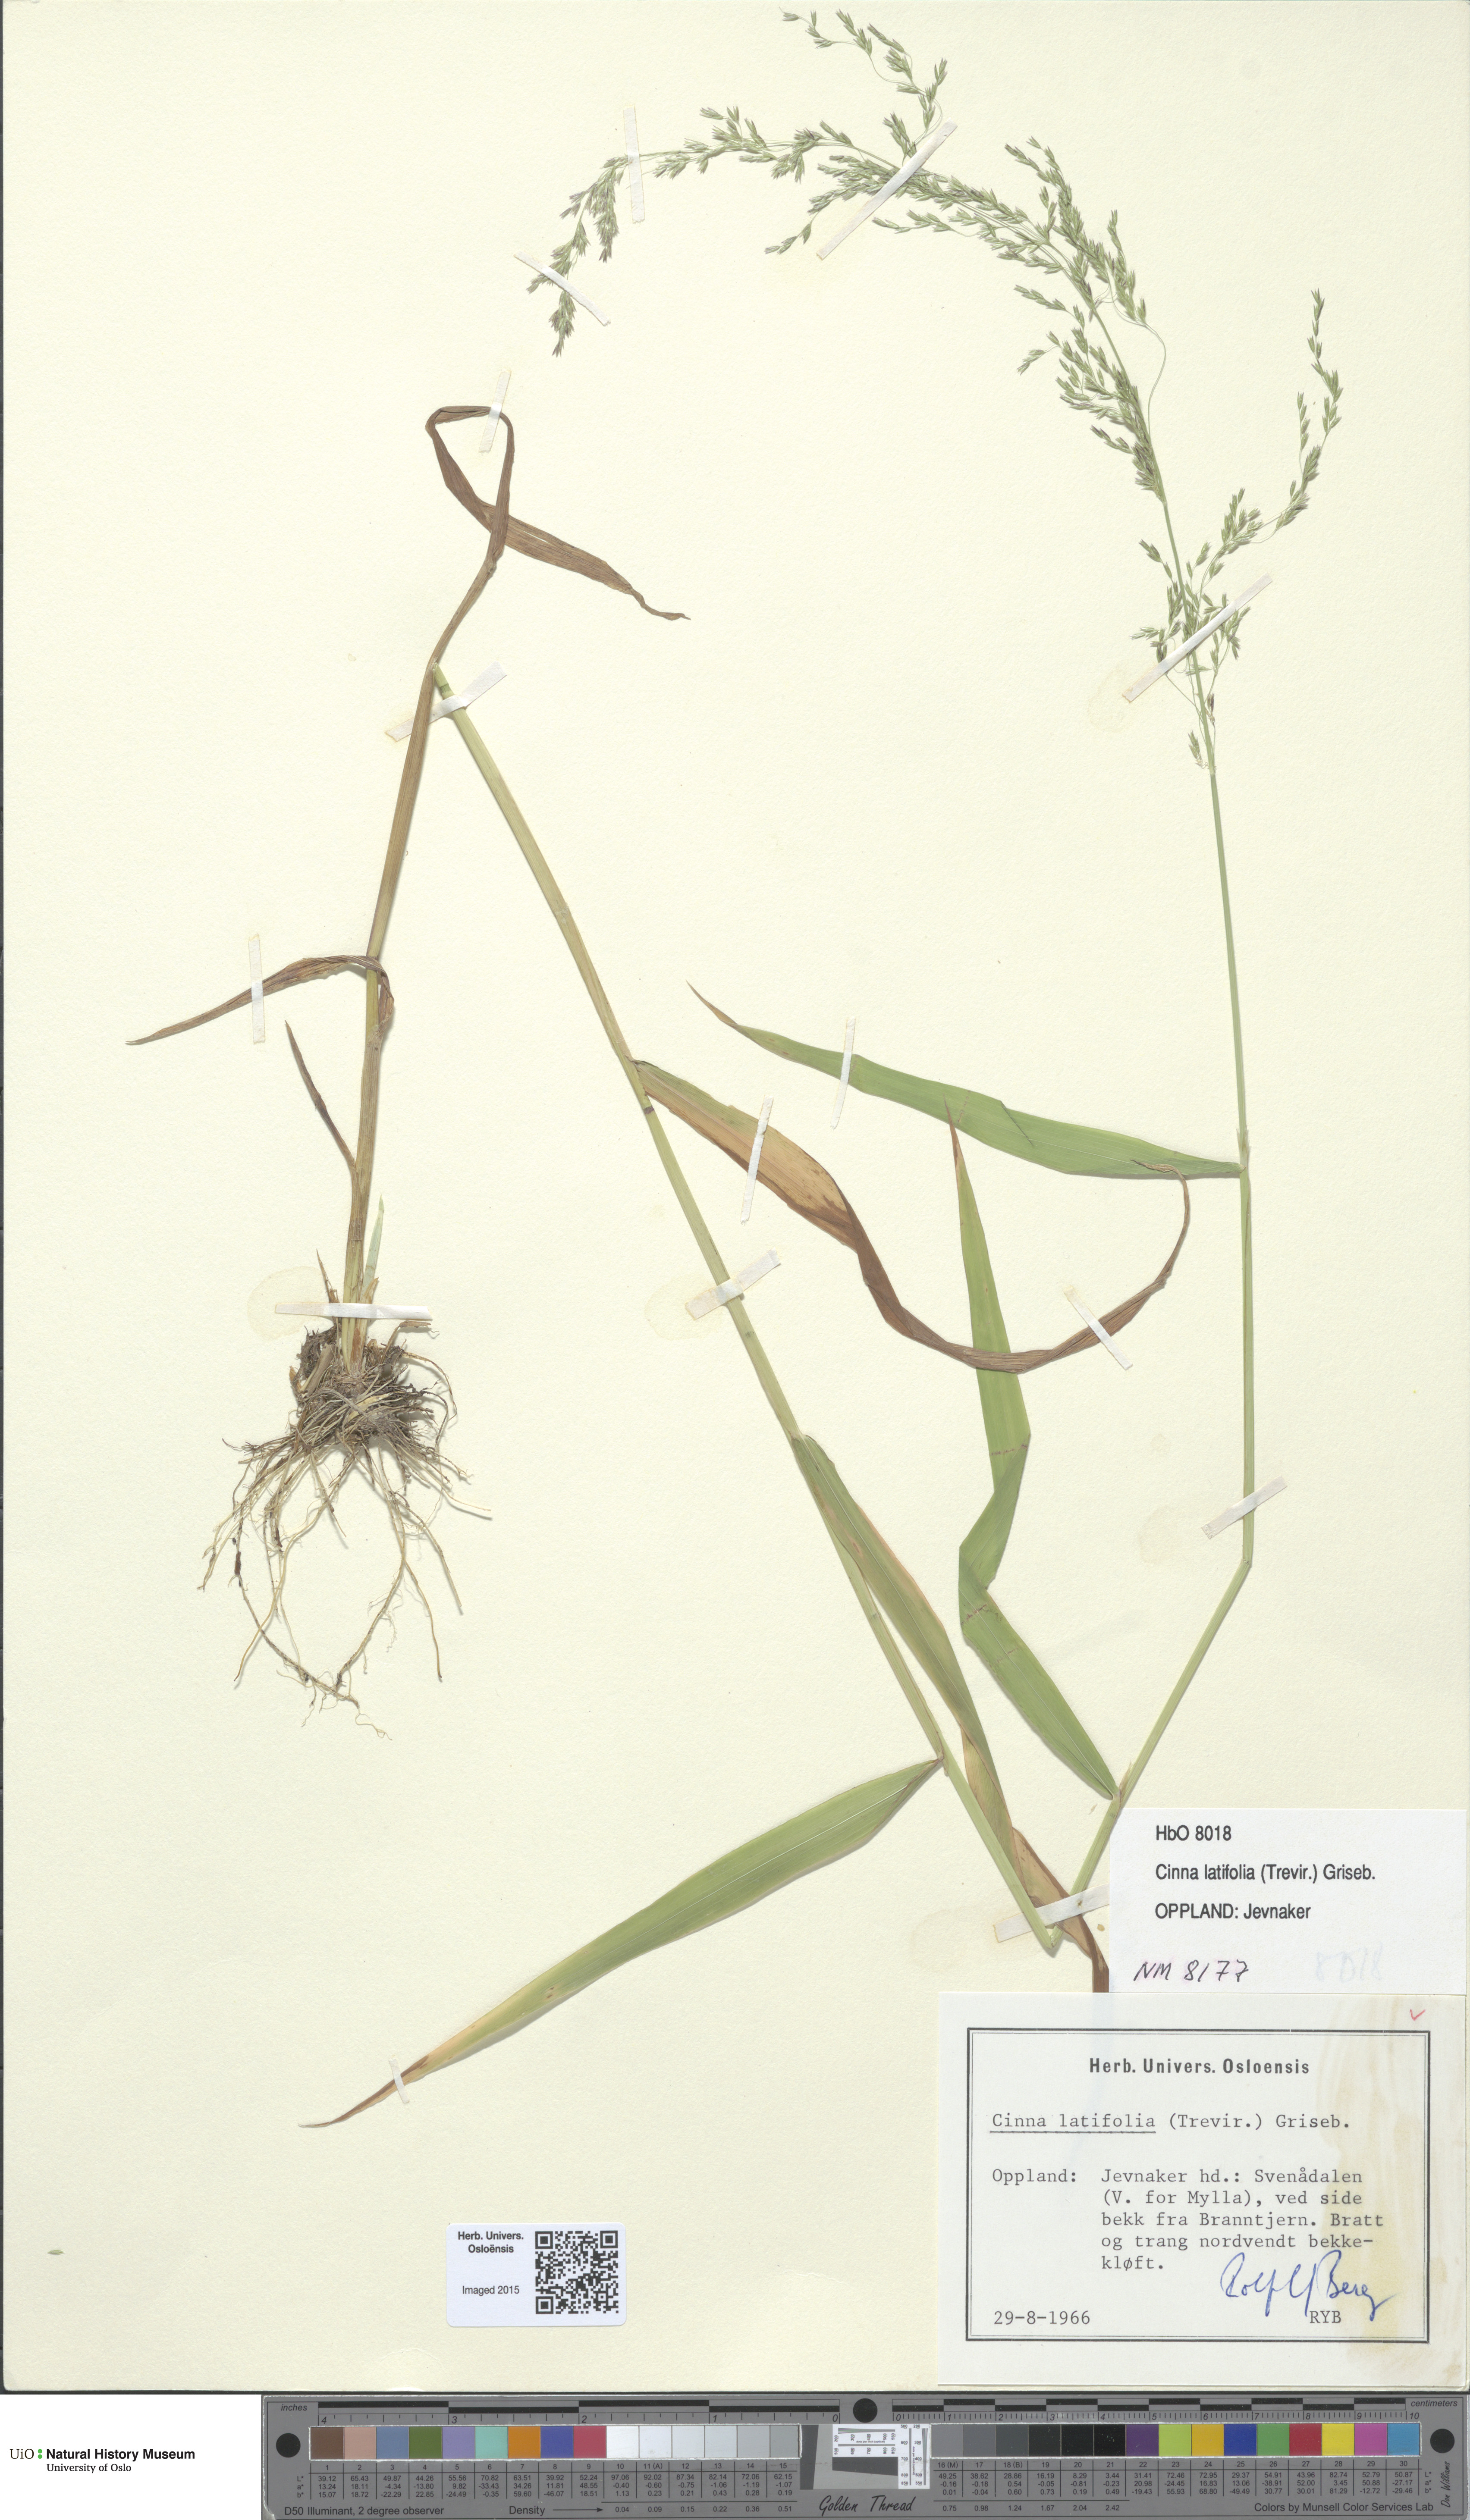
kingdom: Plantae
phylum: Tracheophyta
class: Liliopsida
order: Poales
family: Poaceae
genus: Cinna
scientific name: Cinna latifolia
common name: Drooping woodreed
